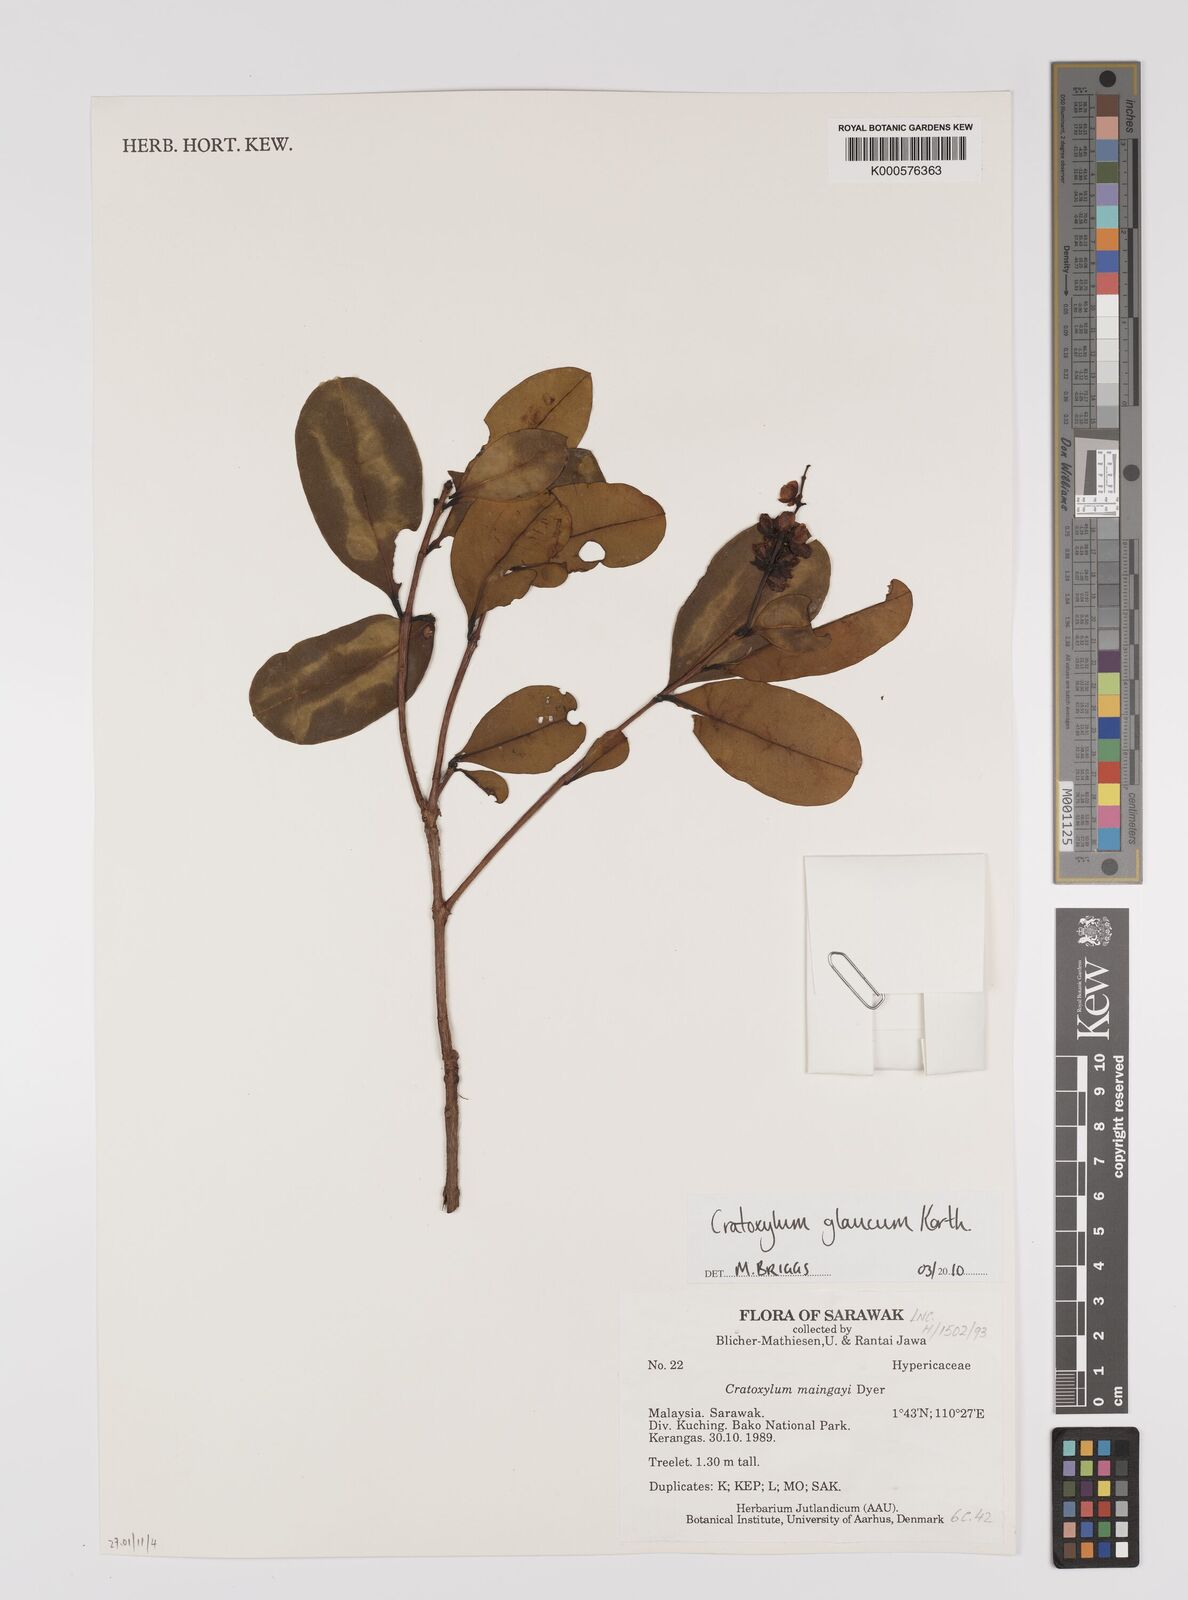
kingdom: Plantae
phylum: Tracheophyta
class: Magnoliopsida
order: Malpighiales
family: Hypericaceae
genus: Cratoxylum
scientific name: Cratoxylum glaucum
